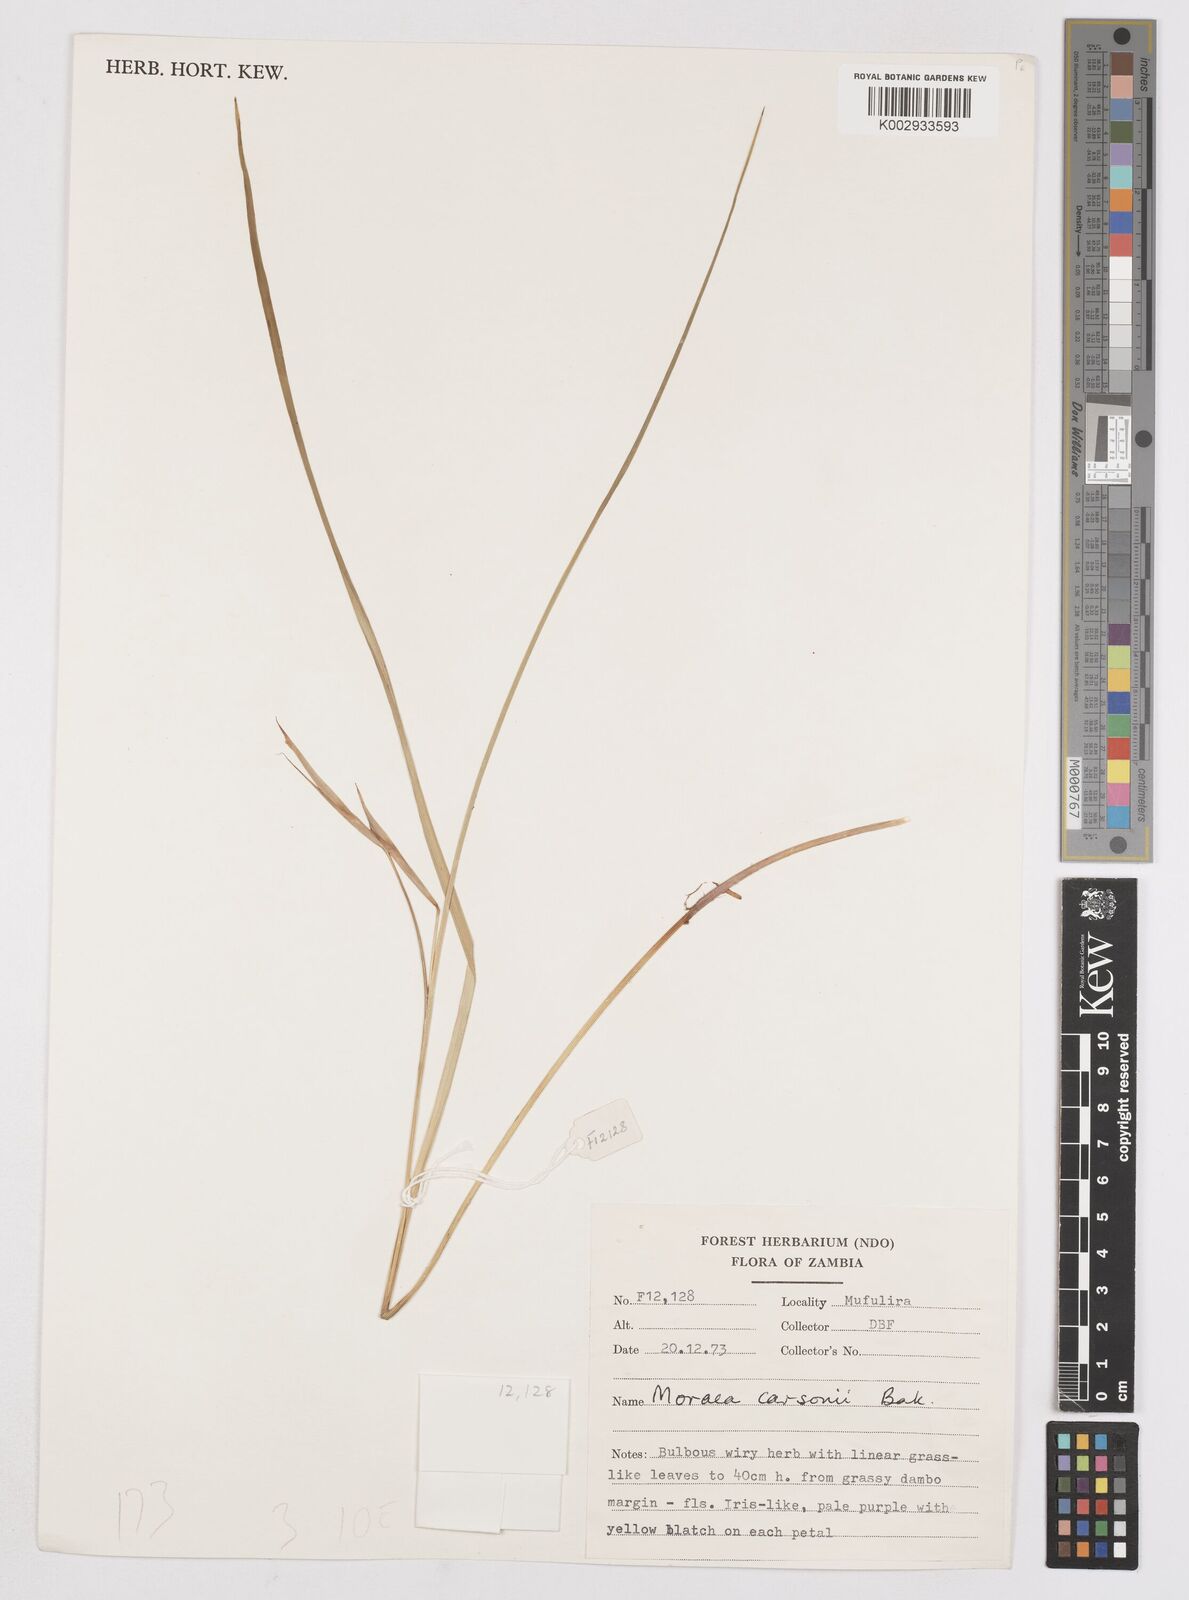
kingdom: Plantae
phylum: Tracheophyta
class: Liliopsida
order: Asparagales
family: Iridaceae
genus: Moraea
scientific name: Moraea carsonii
